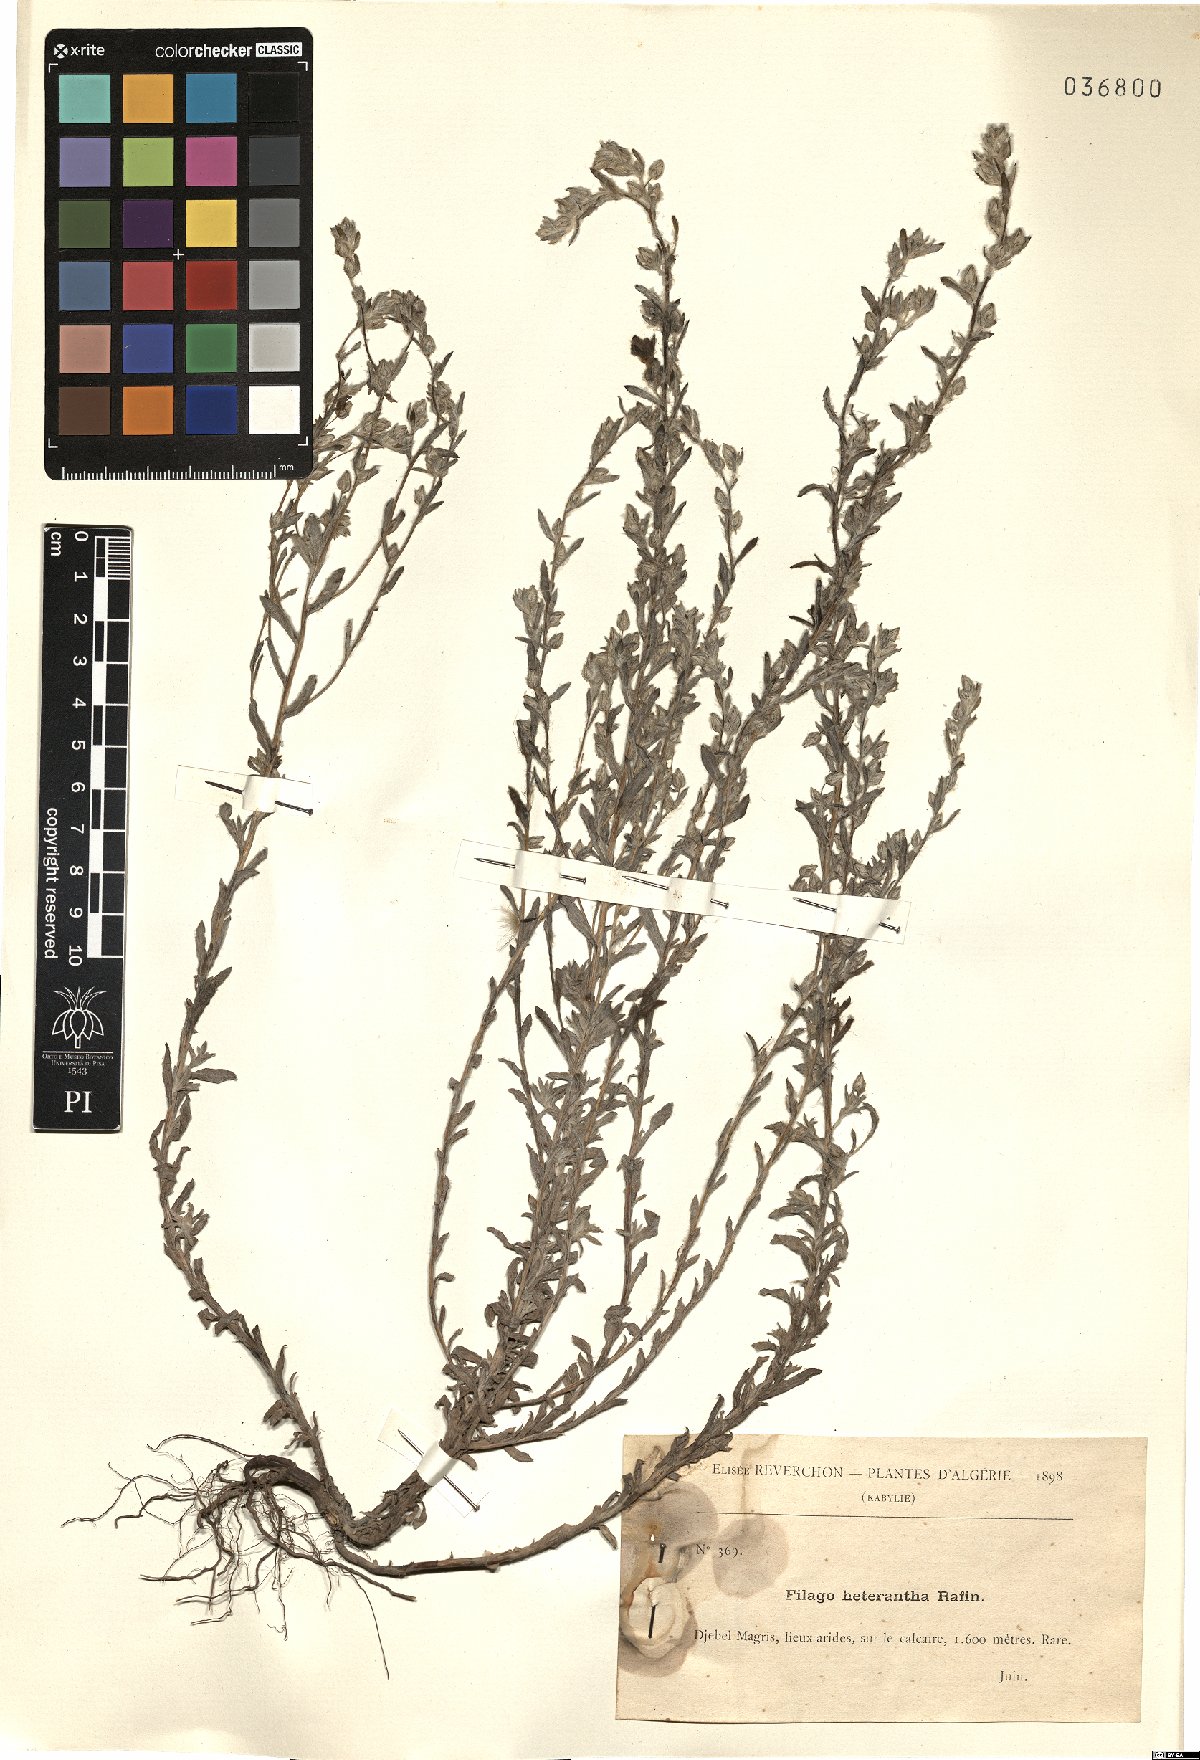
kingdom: Plantae
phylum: Tracheophyta
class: Magnoliopsida
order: Asterales
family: Asteraceae
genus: Logfia
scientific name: Logfia heterantha
